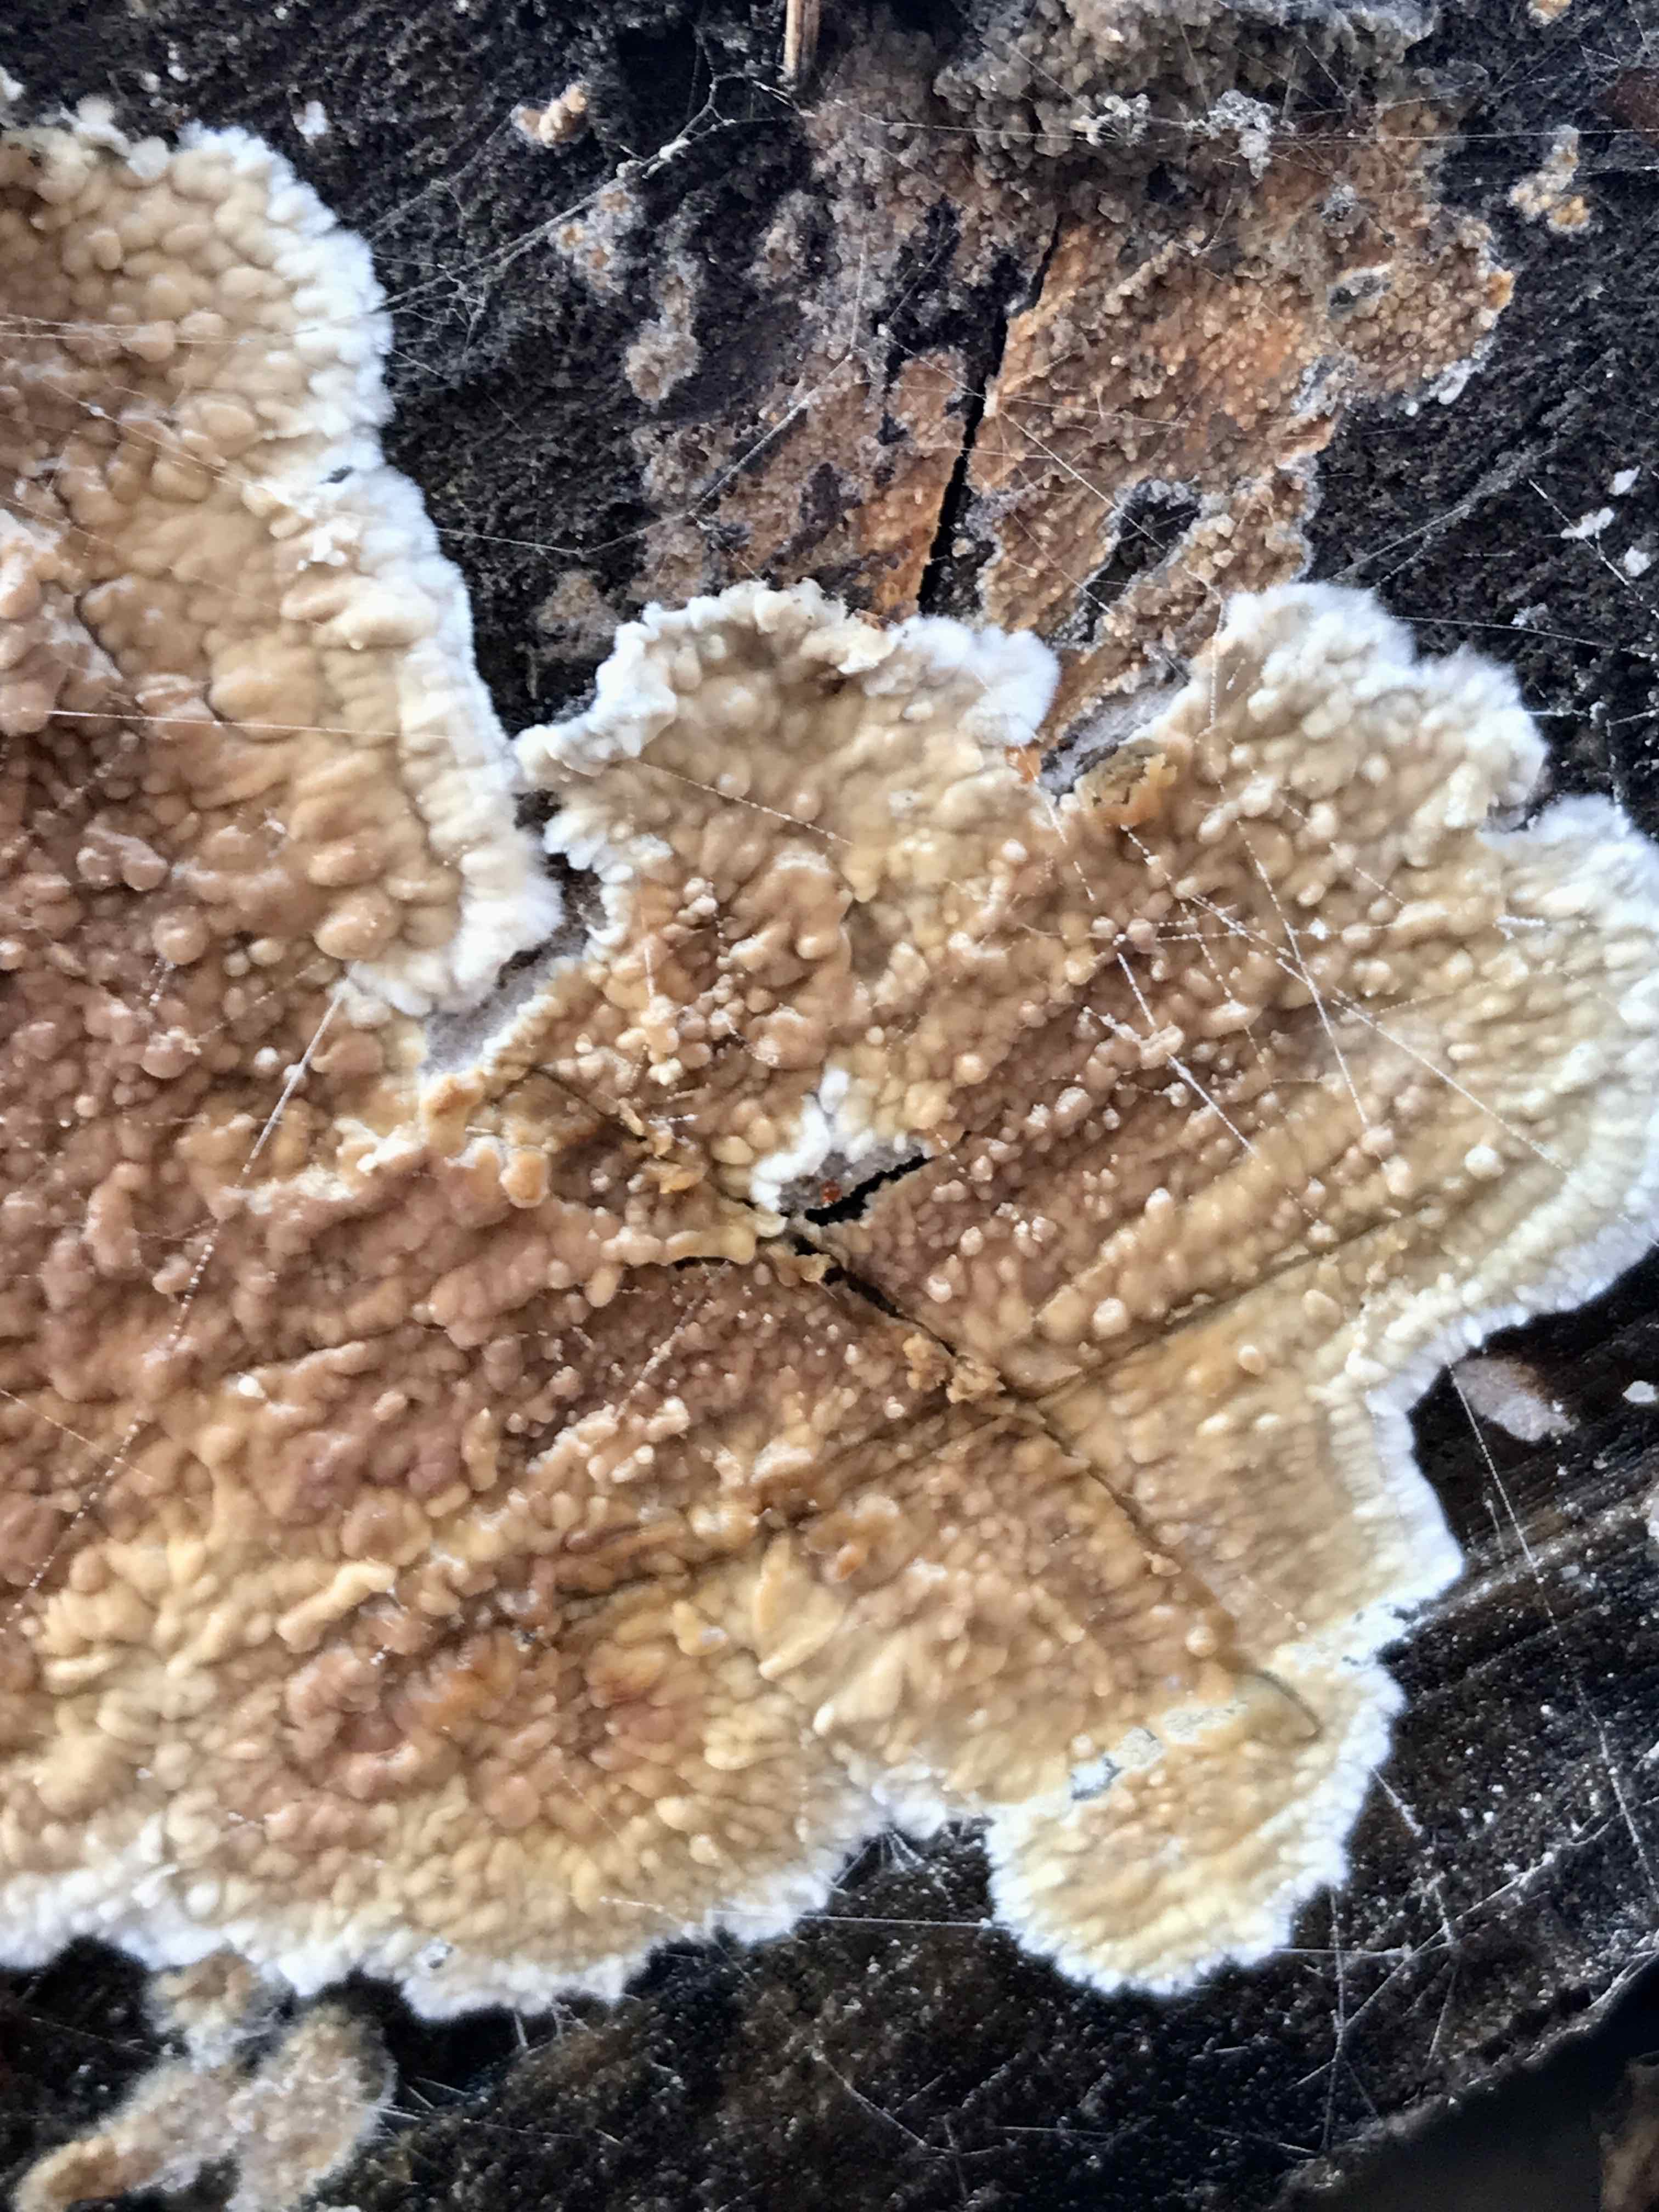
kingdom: Fungi
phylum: Basidiomycota
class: Agaricomycetes
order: Agaricales
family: Physalacriaceae
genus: Cylindrobasidium
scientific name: Cylindrobasidium evolvens
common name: sprækkehinde
